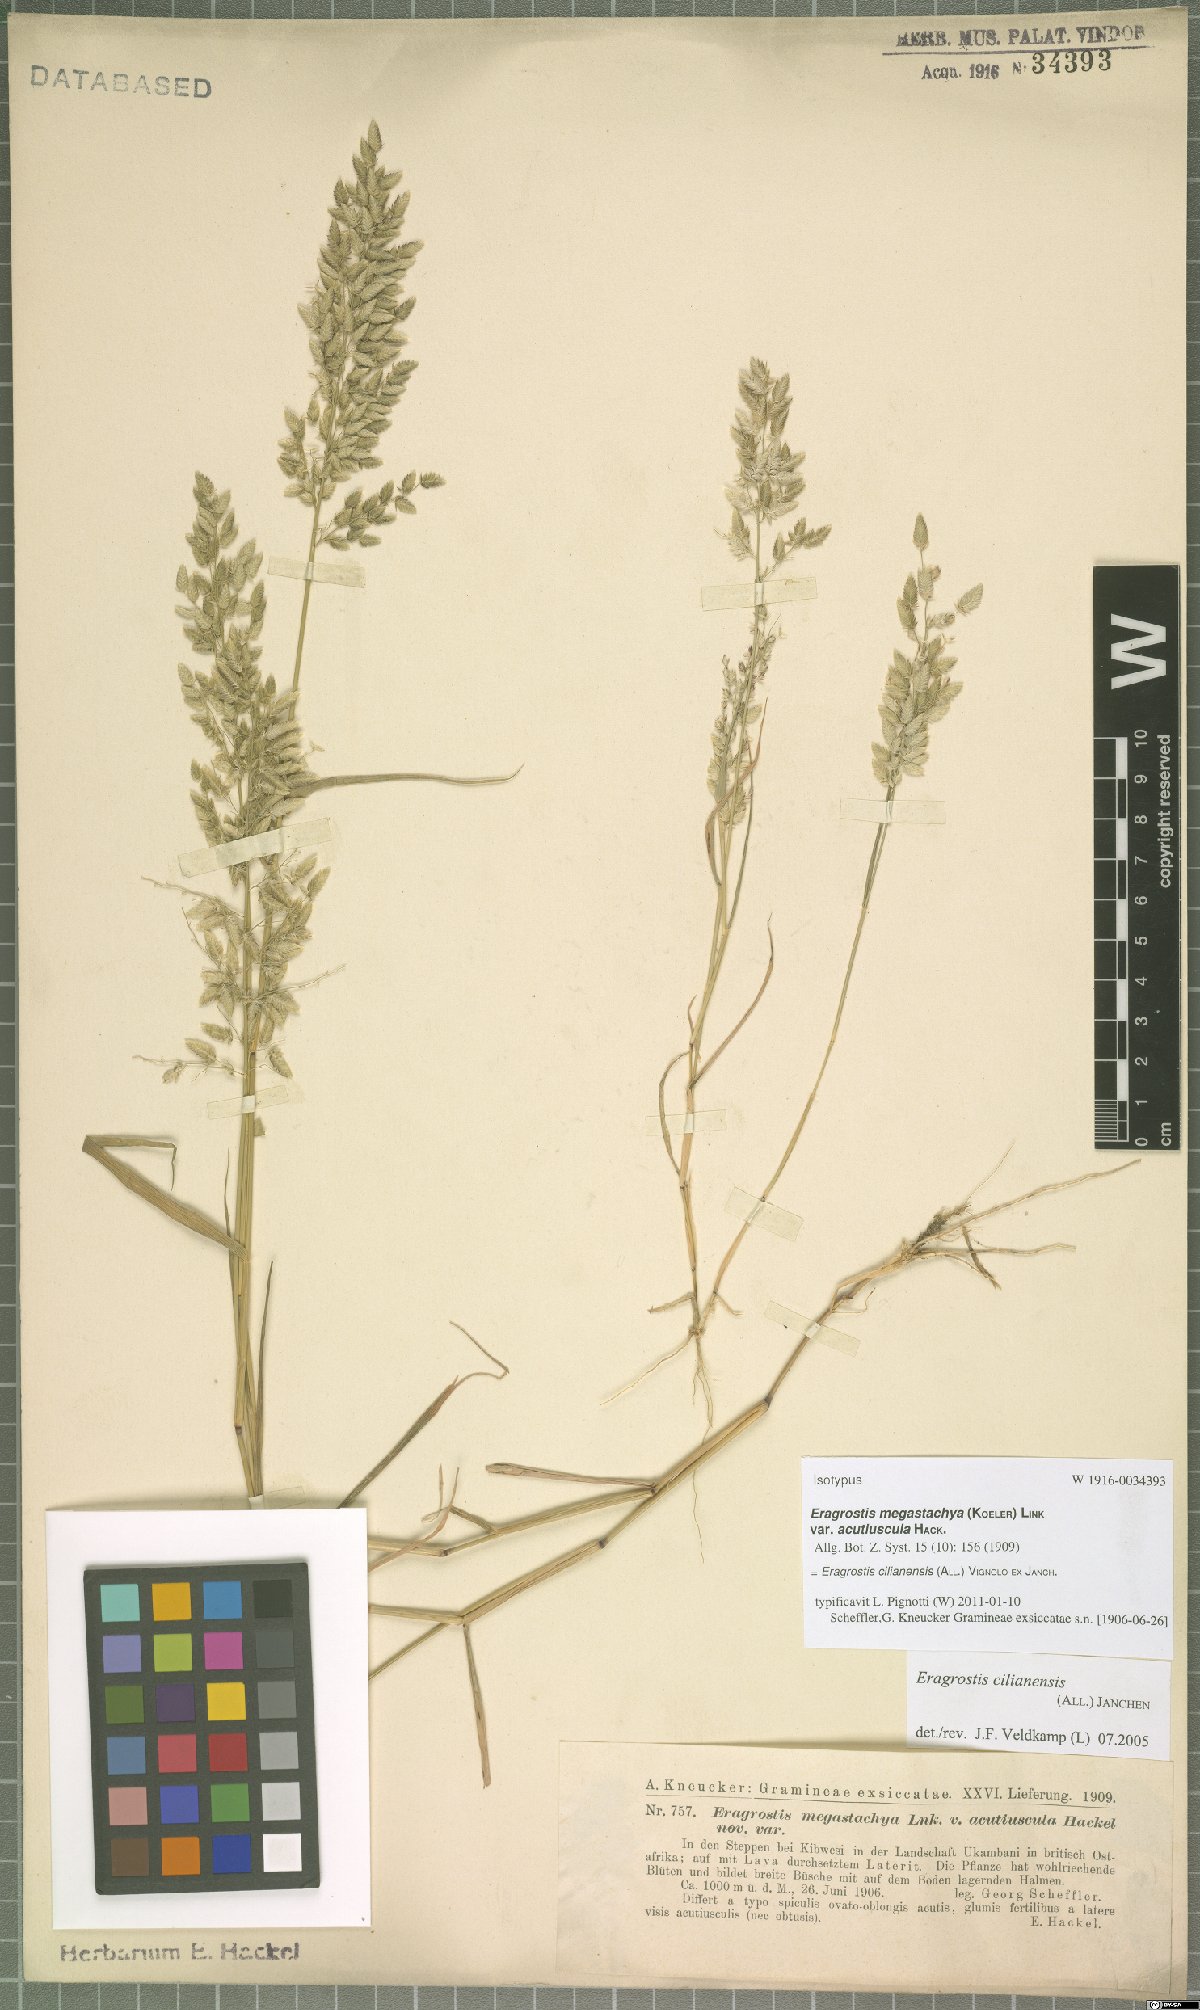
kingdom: Plantae
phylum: Tracheophyta
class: Liliopsida
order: Poales
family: Poaceae
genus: Eragrostis
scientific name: Eragrostis cilianensis
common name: Stinkgrass
